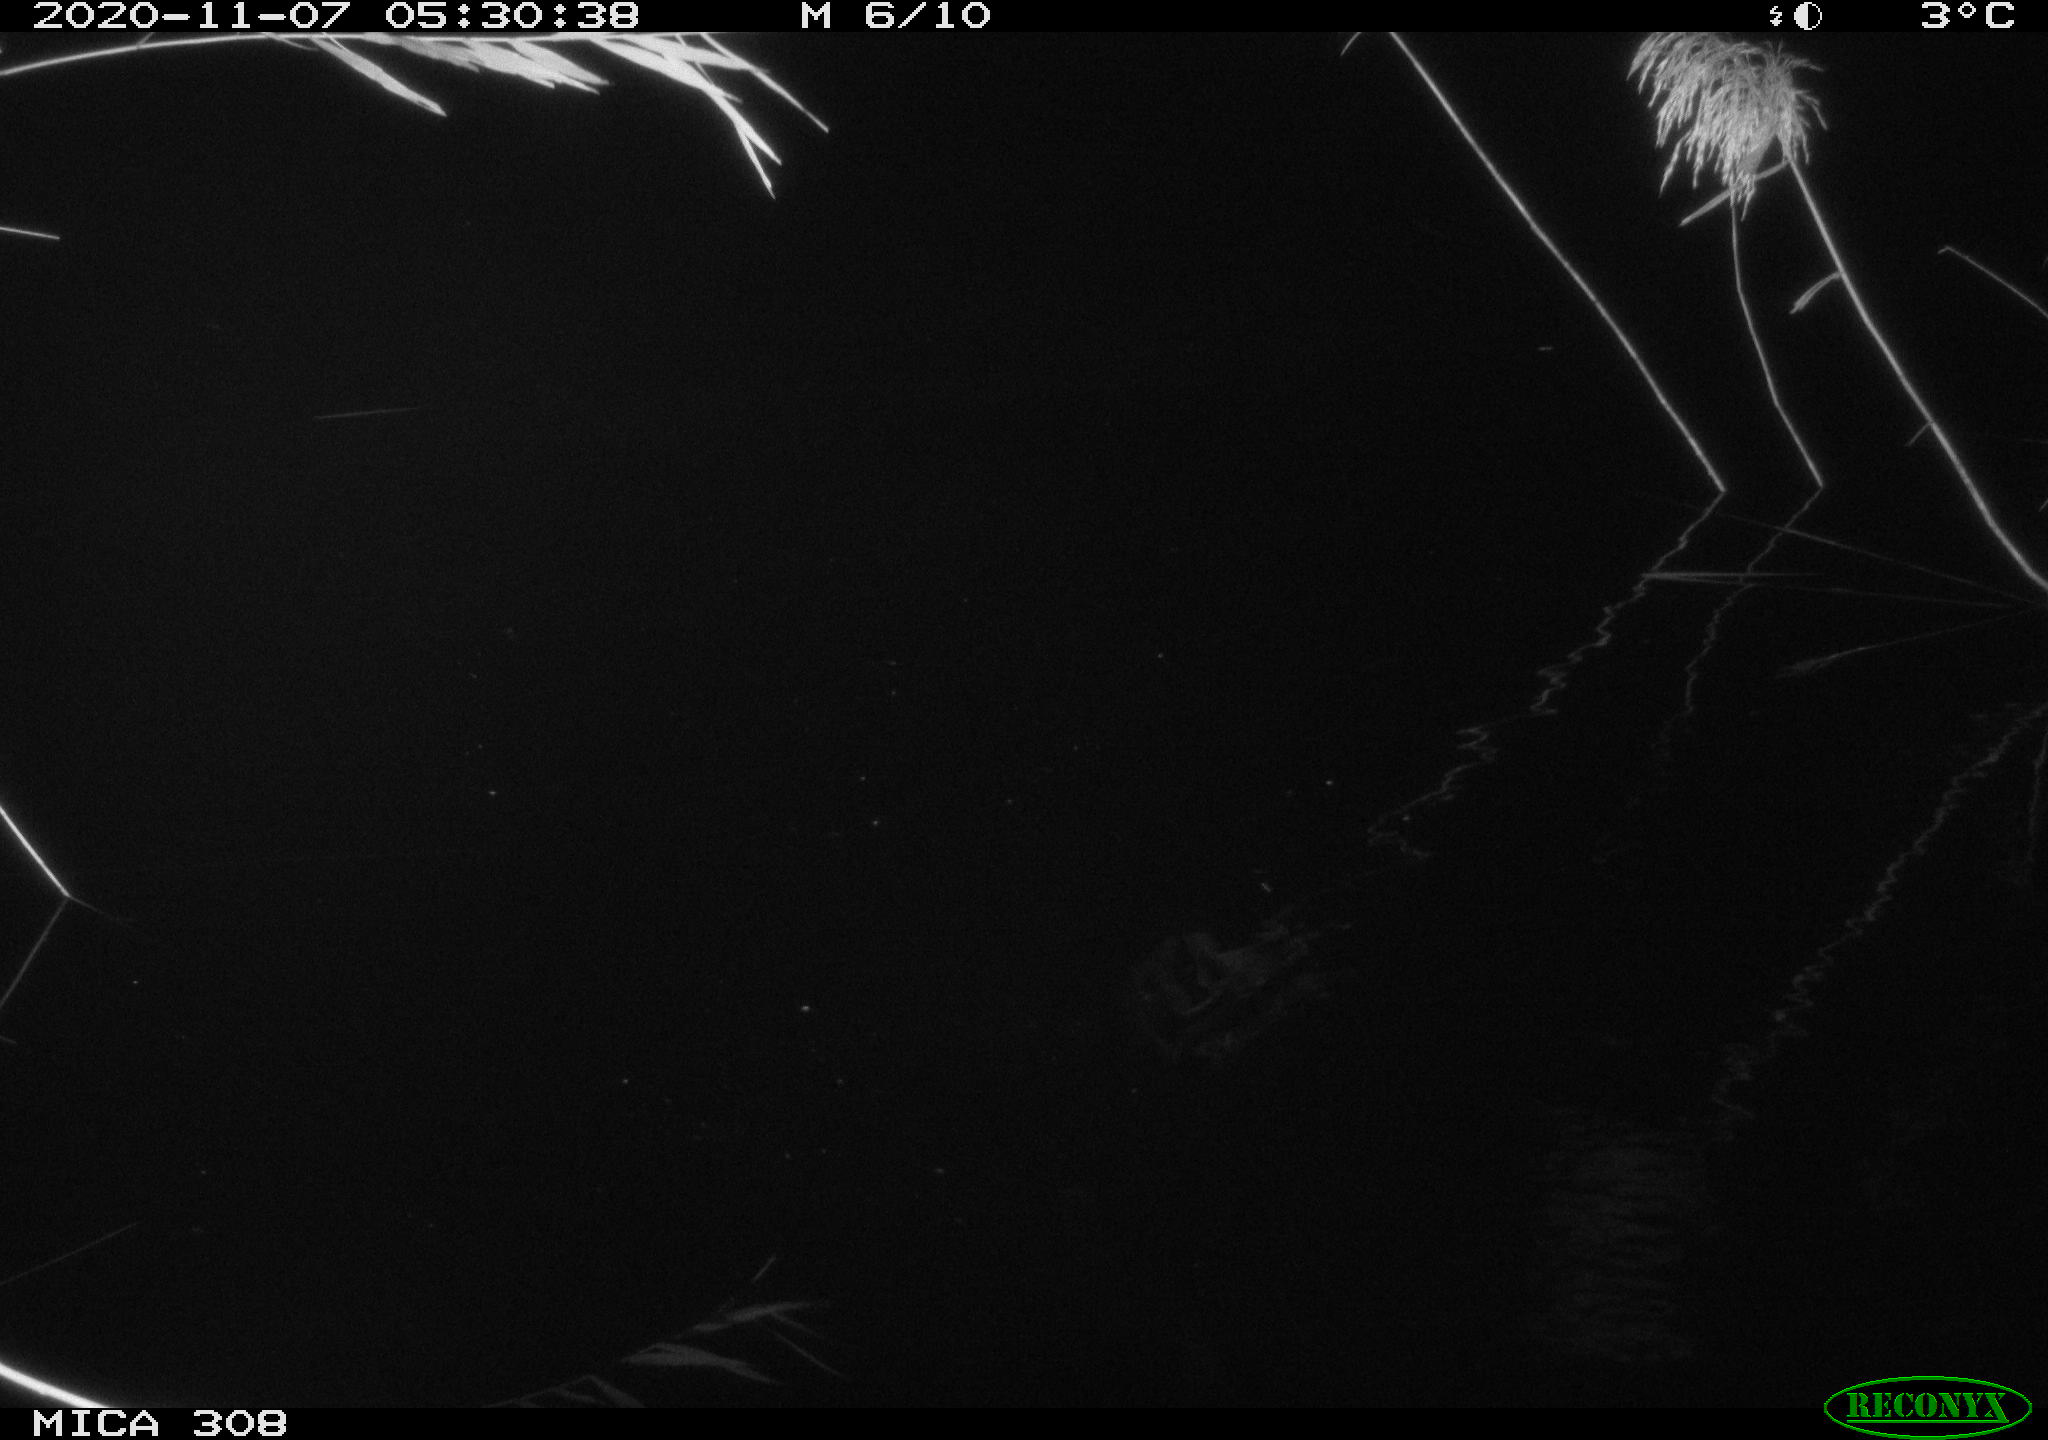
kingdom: Animalia
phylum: Chordata
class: Aves
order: Anseriformes
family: Anatidae
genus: Anas
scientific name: Anas platyrhynchos
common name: Mallard
